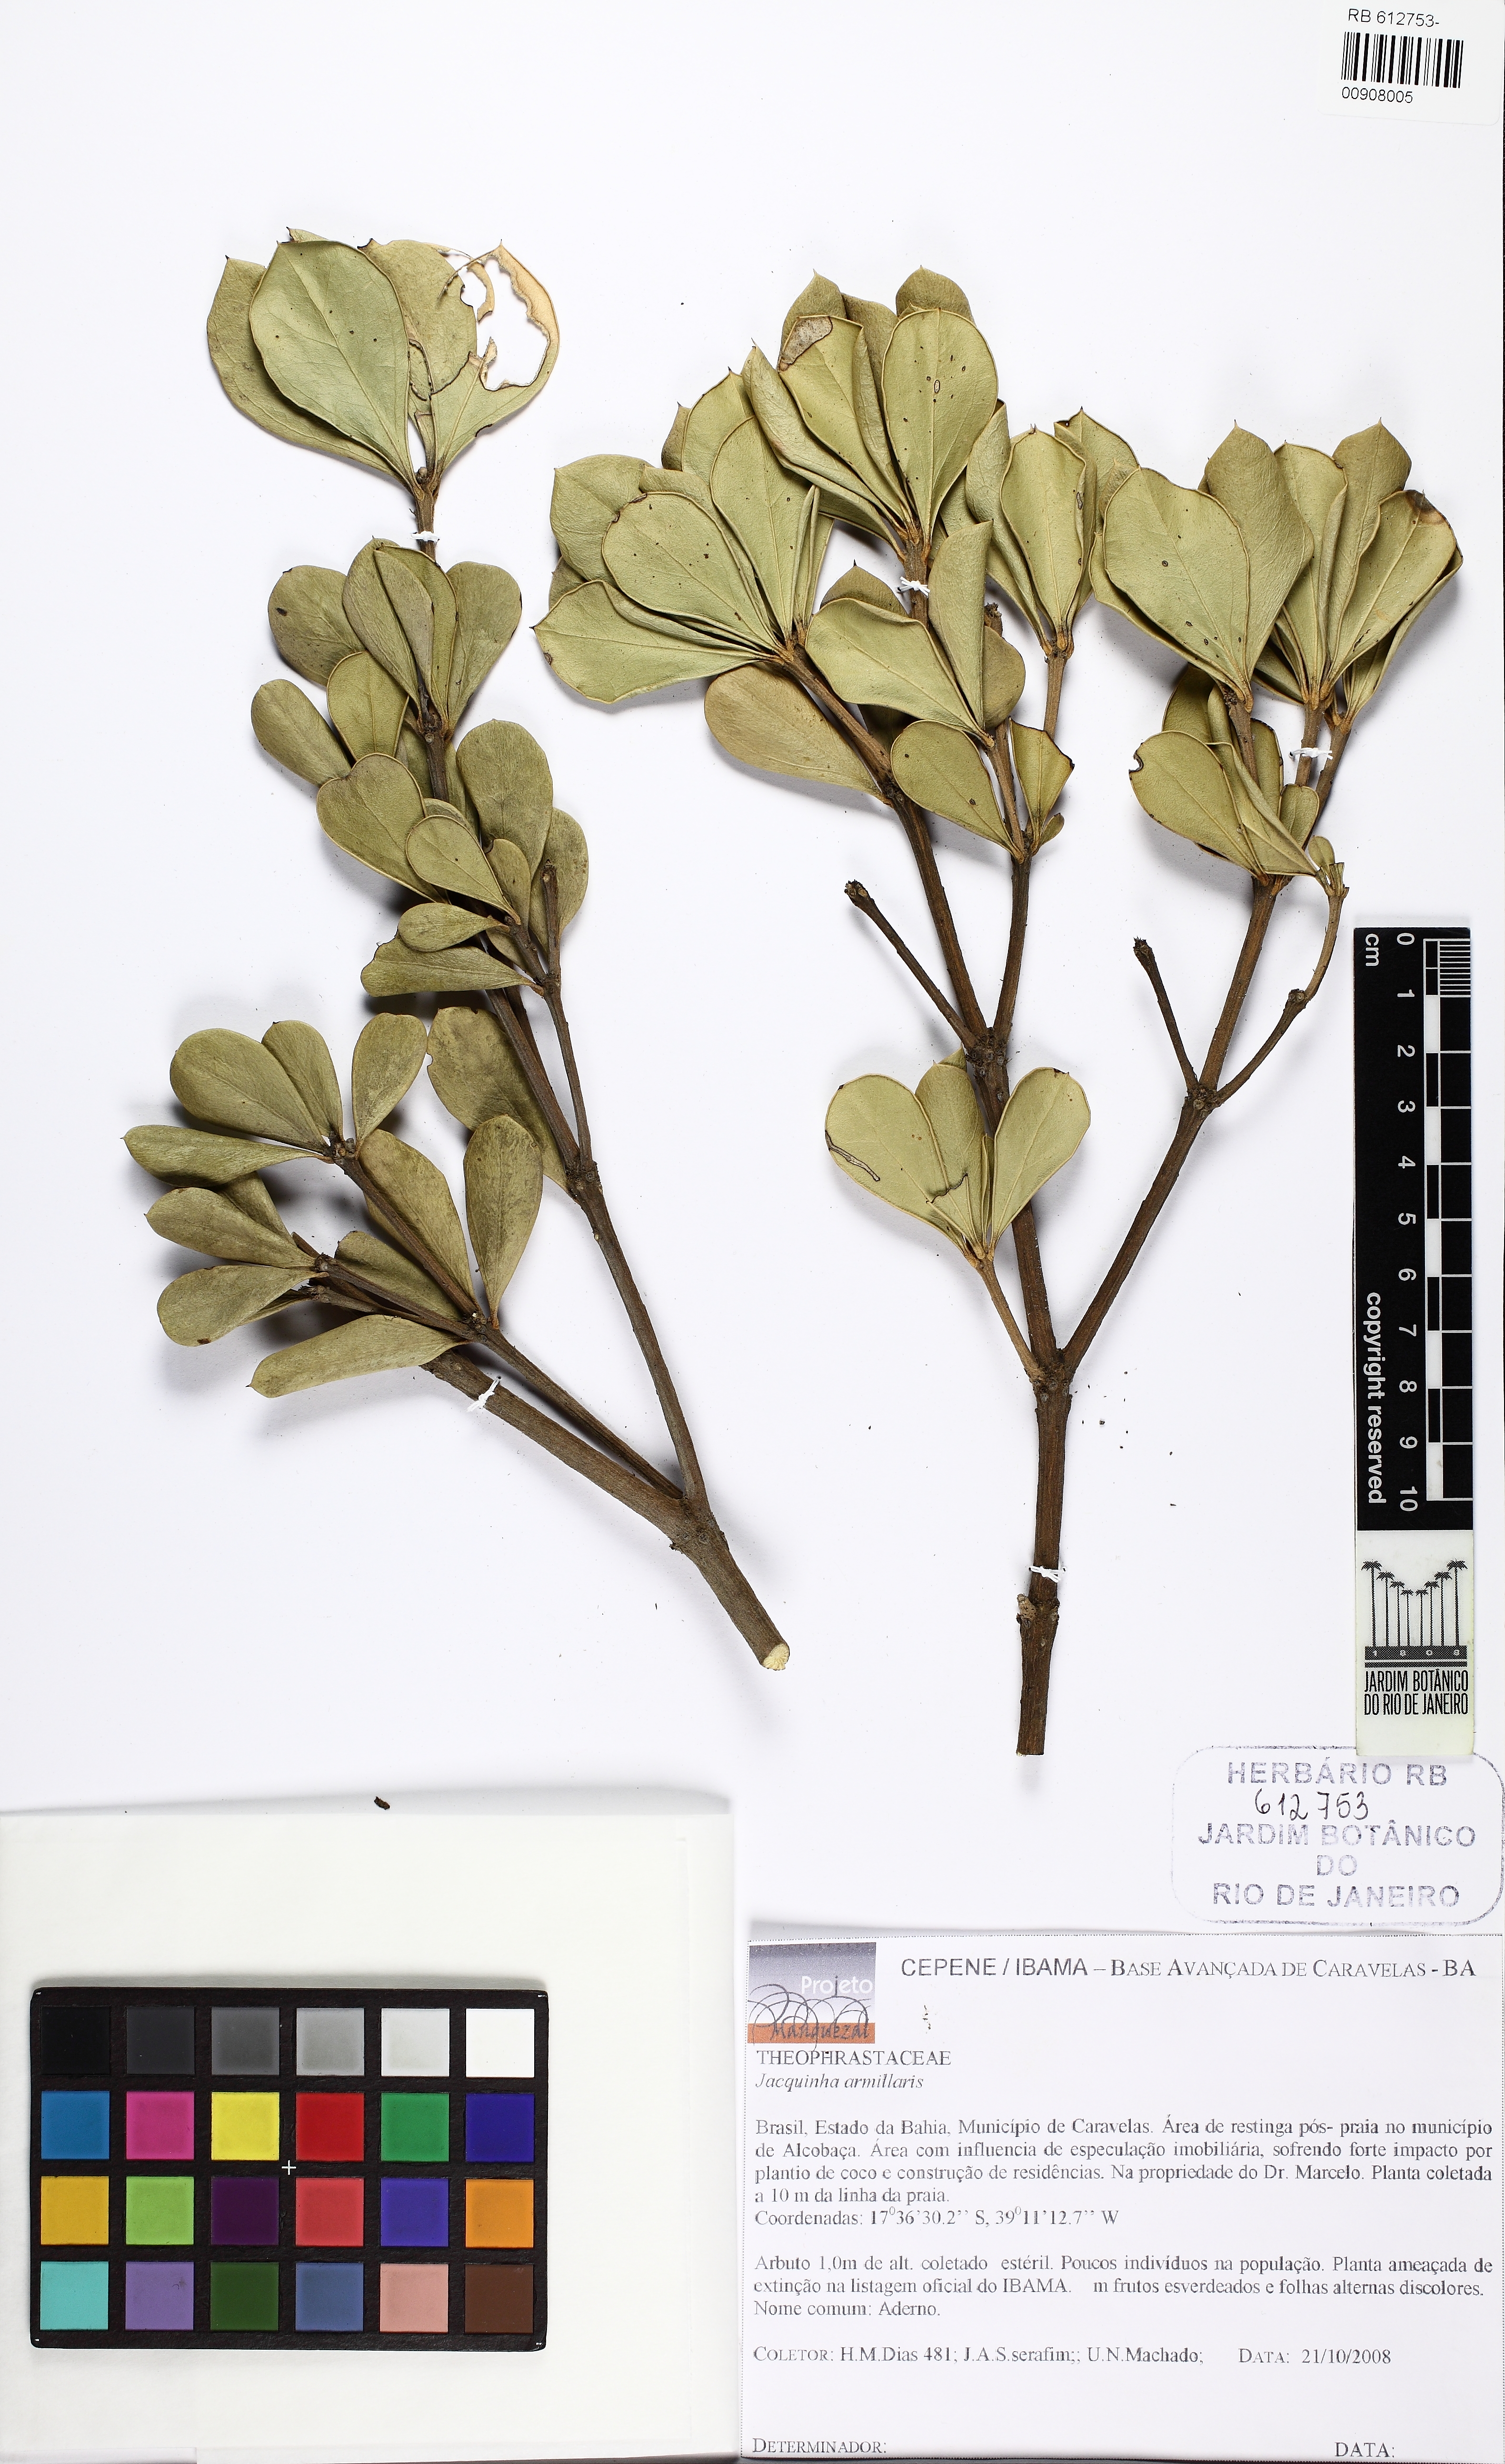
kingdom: Plantae
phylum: Tracheophyta
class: Magnoliopsida
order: Ericales
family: Primulaceae
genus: Jacquinia
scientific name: Jacquinia armillaris
